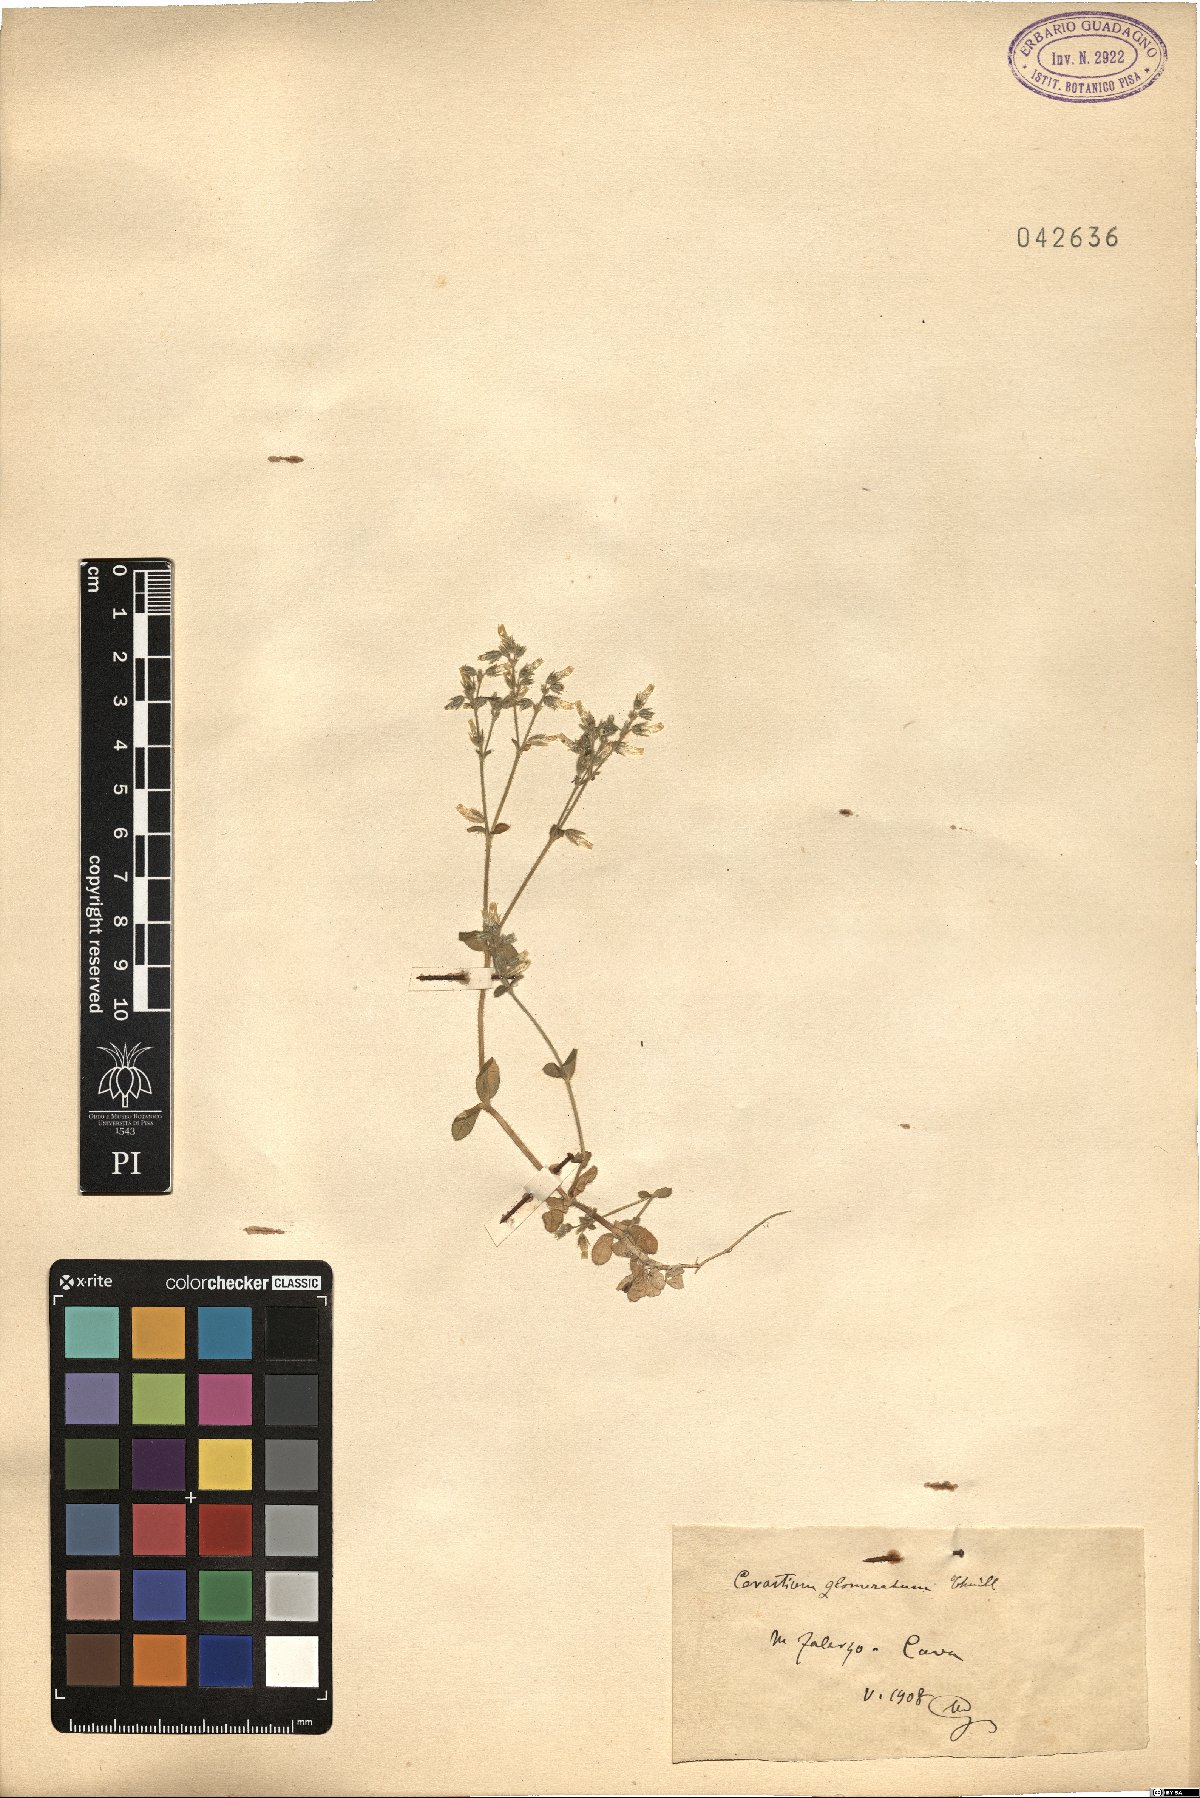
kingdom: Plantae
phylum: Tracheophyta
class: Magnoliopsida
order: Caryophyllales
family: Caryophyllaceae
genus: Cerastium
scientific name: Cerastium glomeratum
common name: Sticky chickweed
